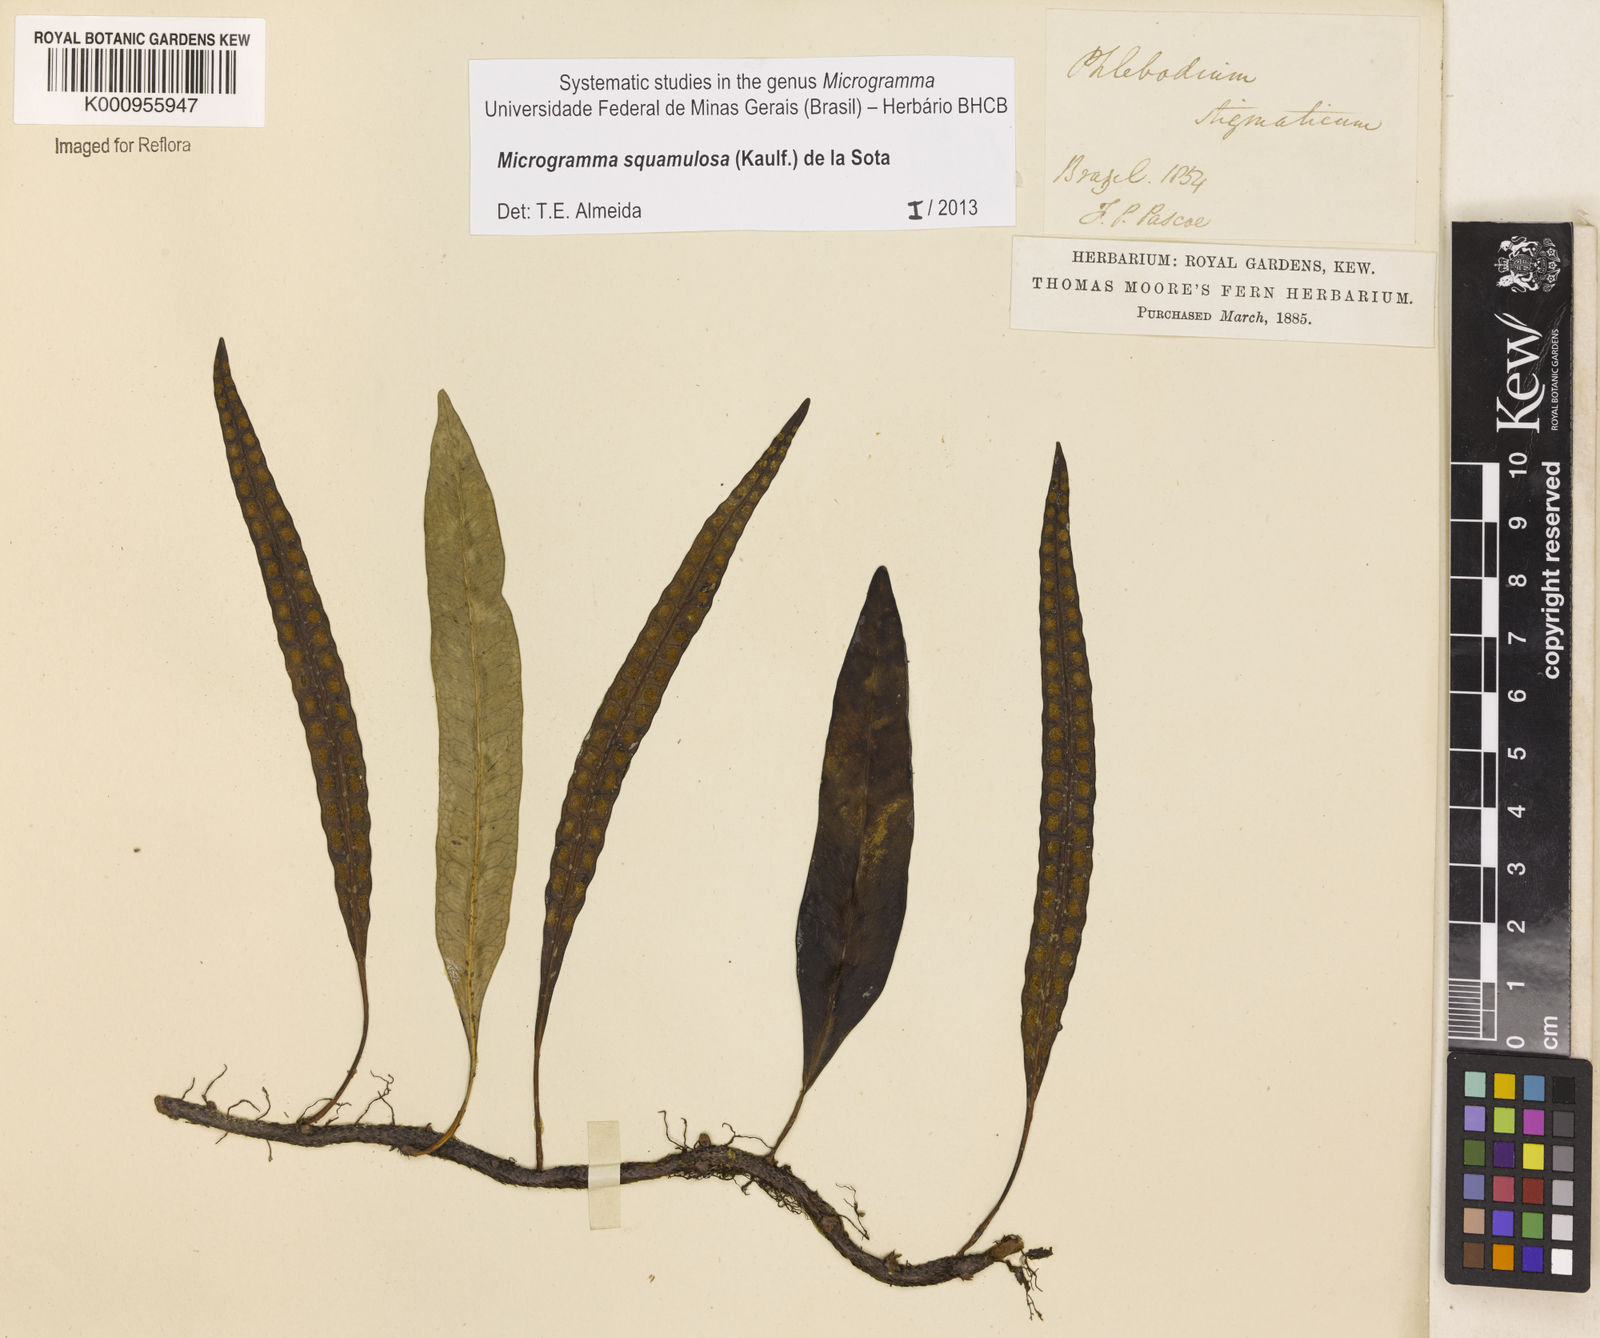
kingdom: Plantae
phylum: Tracheophyta
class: Polypodiopsida
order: Polypodiales
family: Polypodiaceae
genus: Microgramma
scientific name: Microgramma squamulosa
